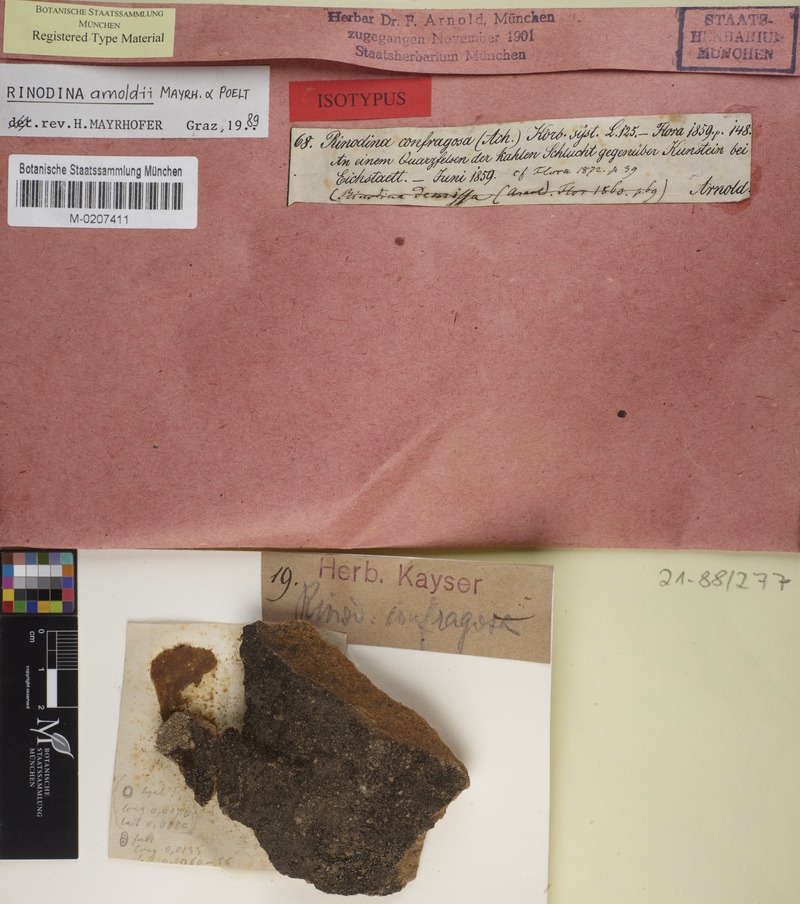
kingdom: Fungi
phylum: Ascomycota
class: Lecanoromycetes
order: Caliciales
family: Physciaceae
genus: Rinodina
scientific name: Rinodina arnoldii
